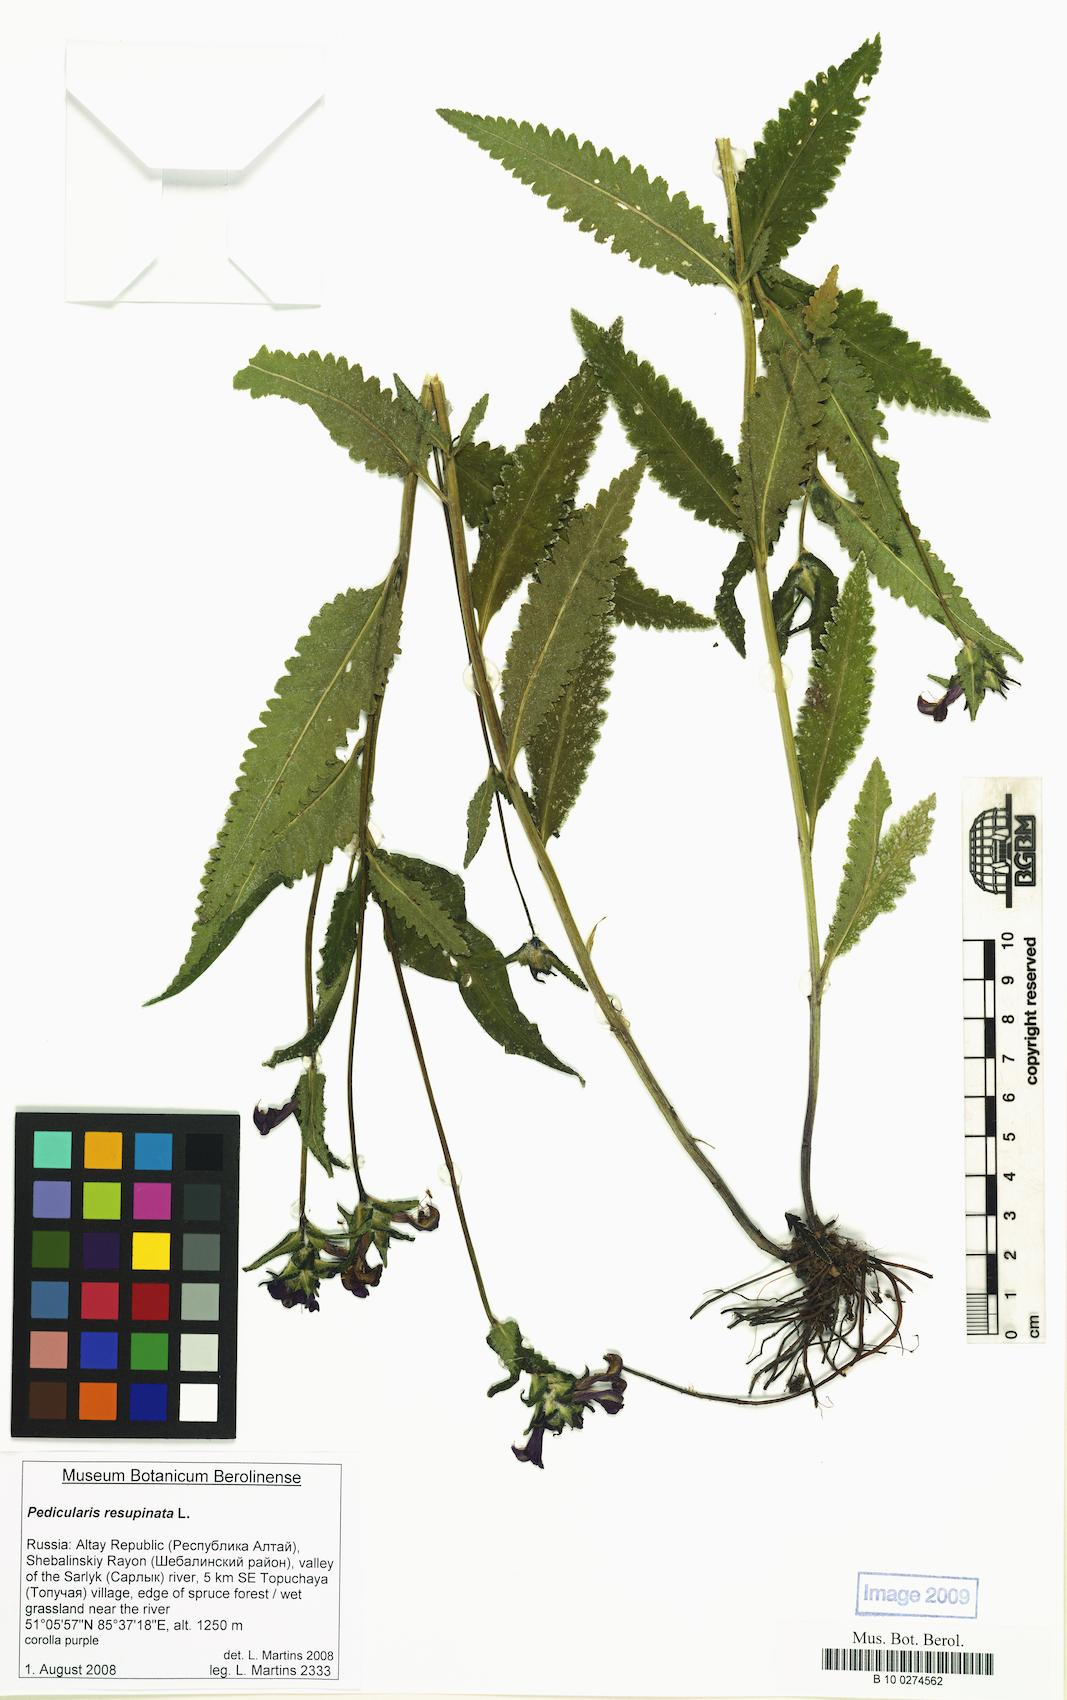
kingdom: Plantae
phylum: Tracheophyta
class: Magnoliopsida
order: Lamiales
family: Orobanchaceae
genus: Pedicularis
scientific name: Pedicularis resupinata
